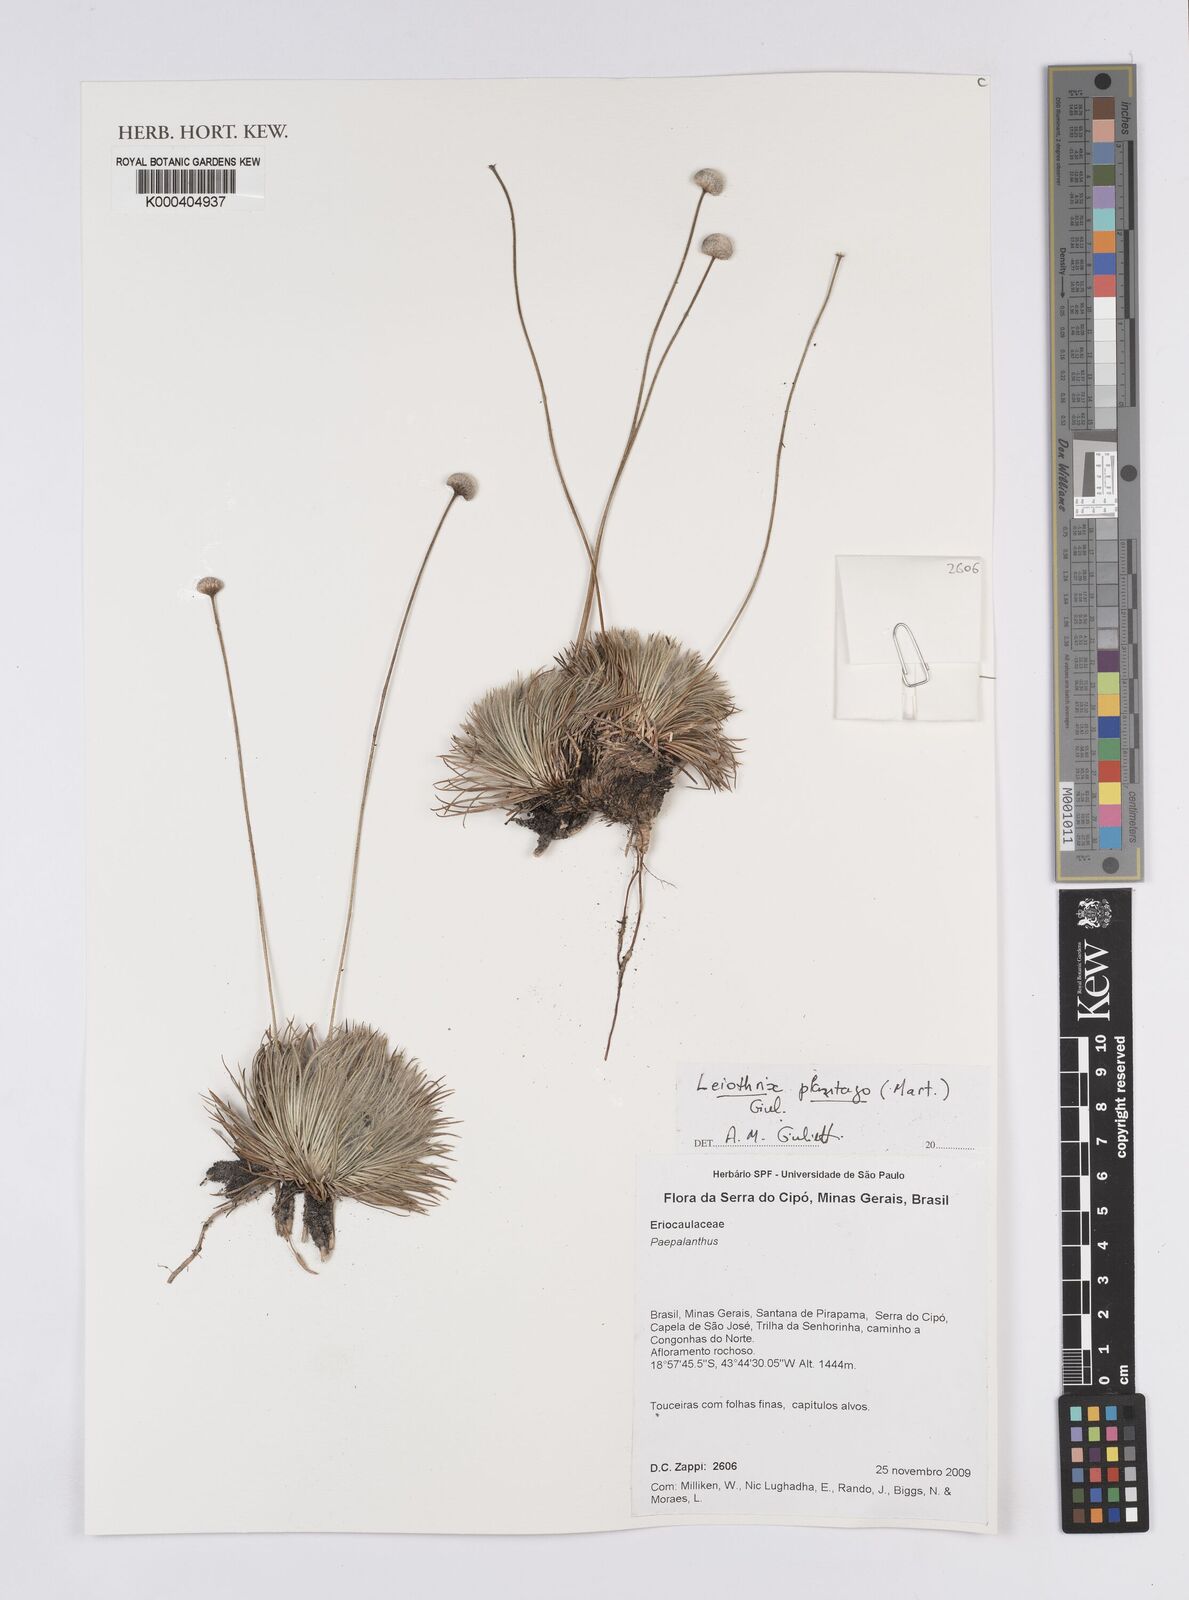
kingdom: Plantae
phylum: Tracheophyta
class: Liliopsida
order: Poales
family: Eriocaulaceae
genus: Leiothrix
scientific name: Leiothrix plantago
